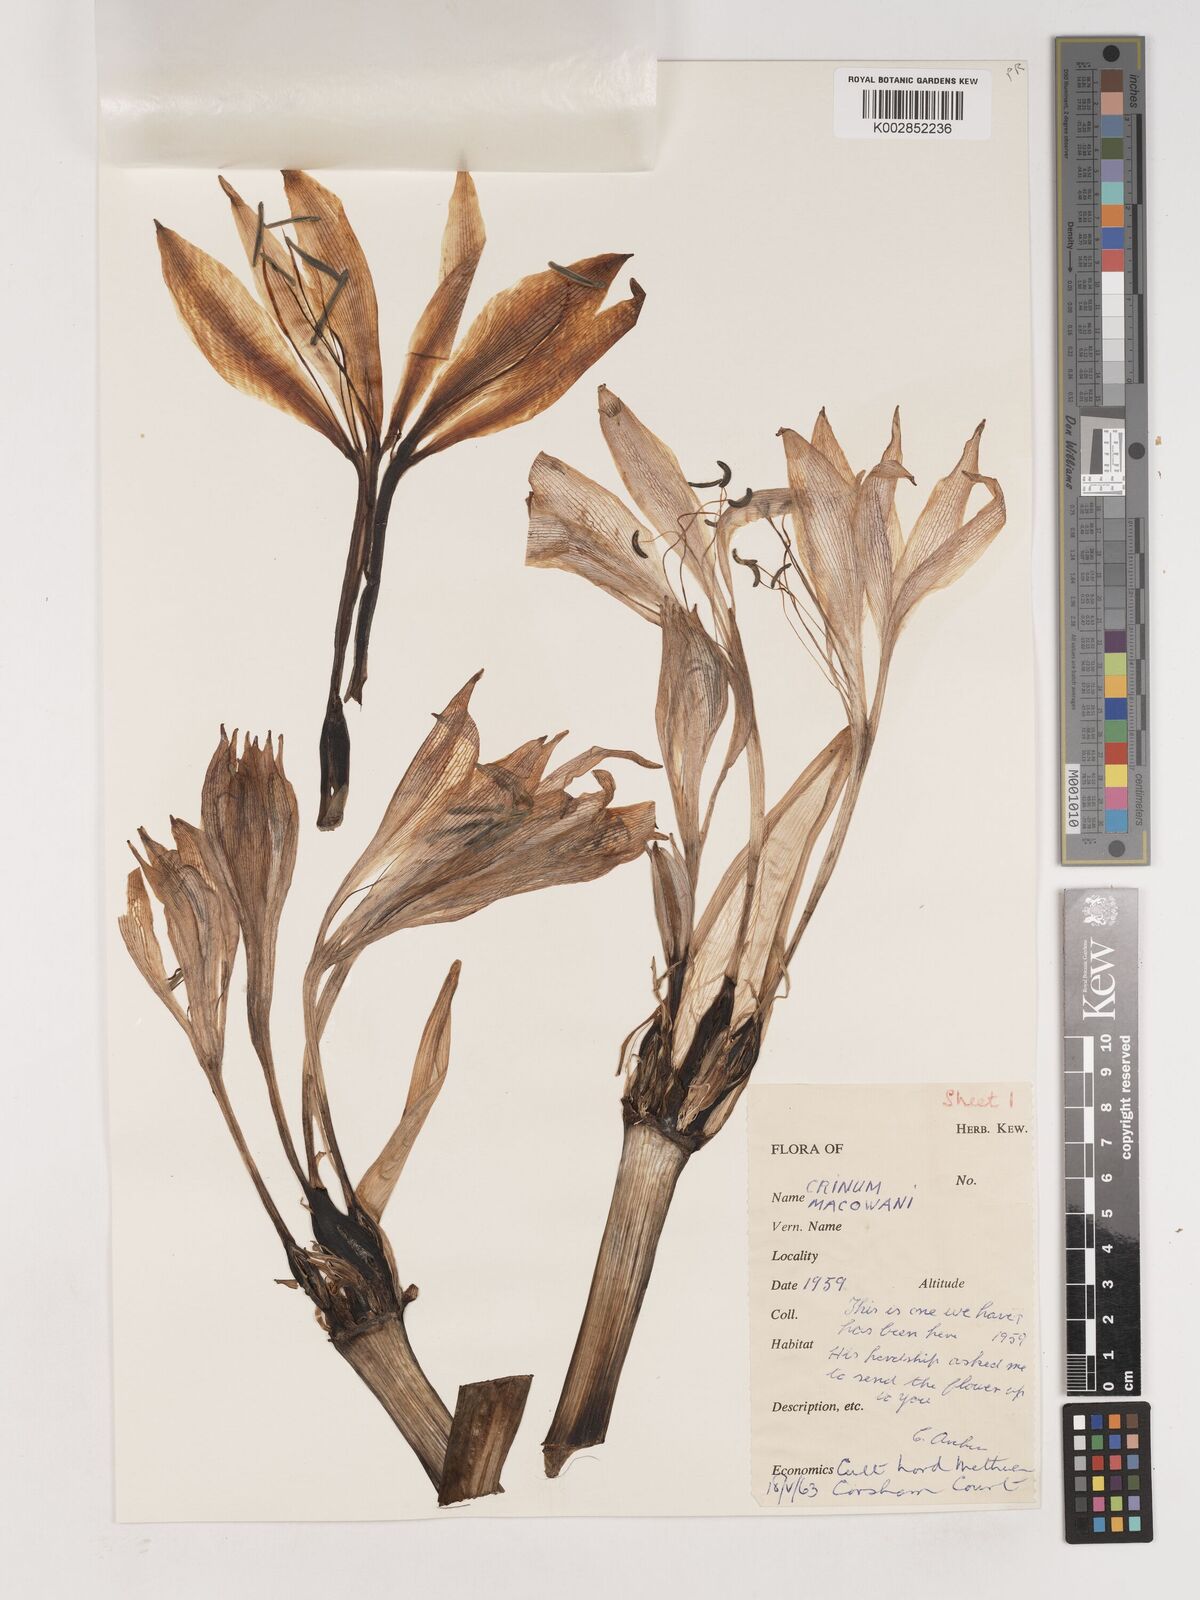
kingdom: Plantae
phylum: Tracheophyta
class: Liliopsida
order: Asparagales
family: Amaryllidaceae
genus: Crinum
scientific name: Crinum macowanii
